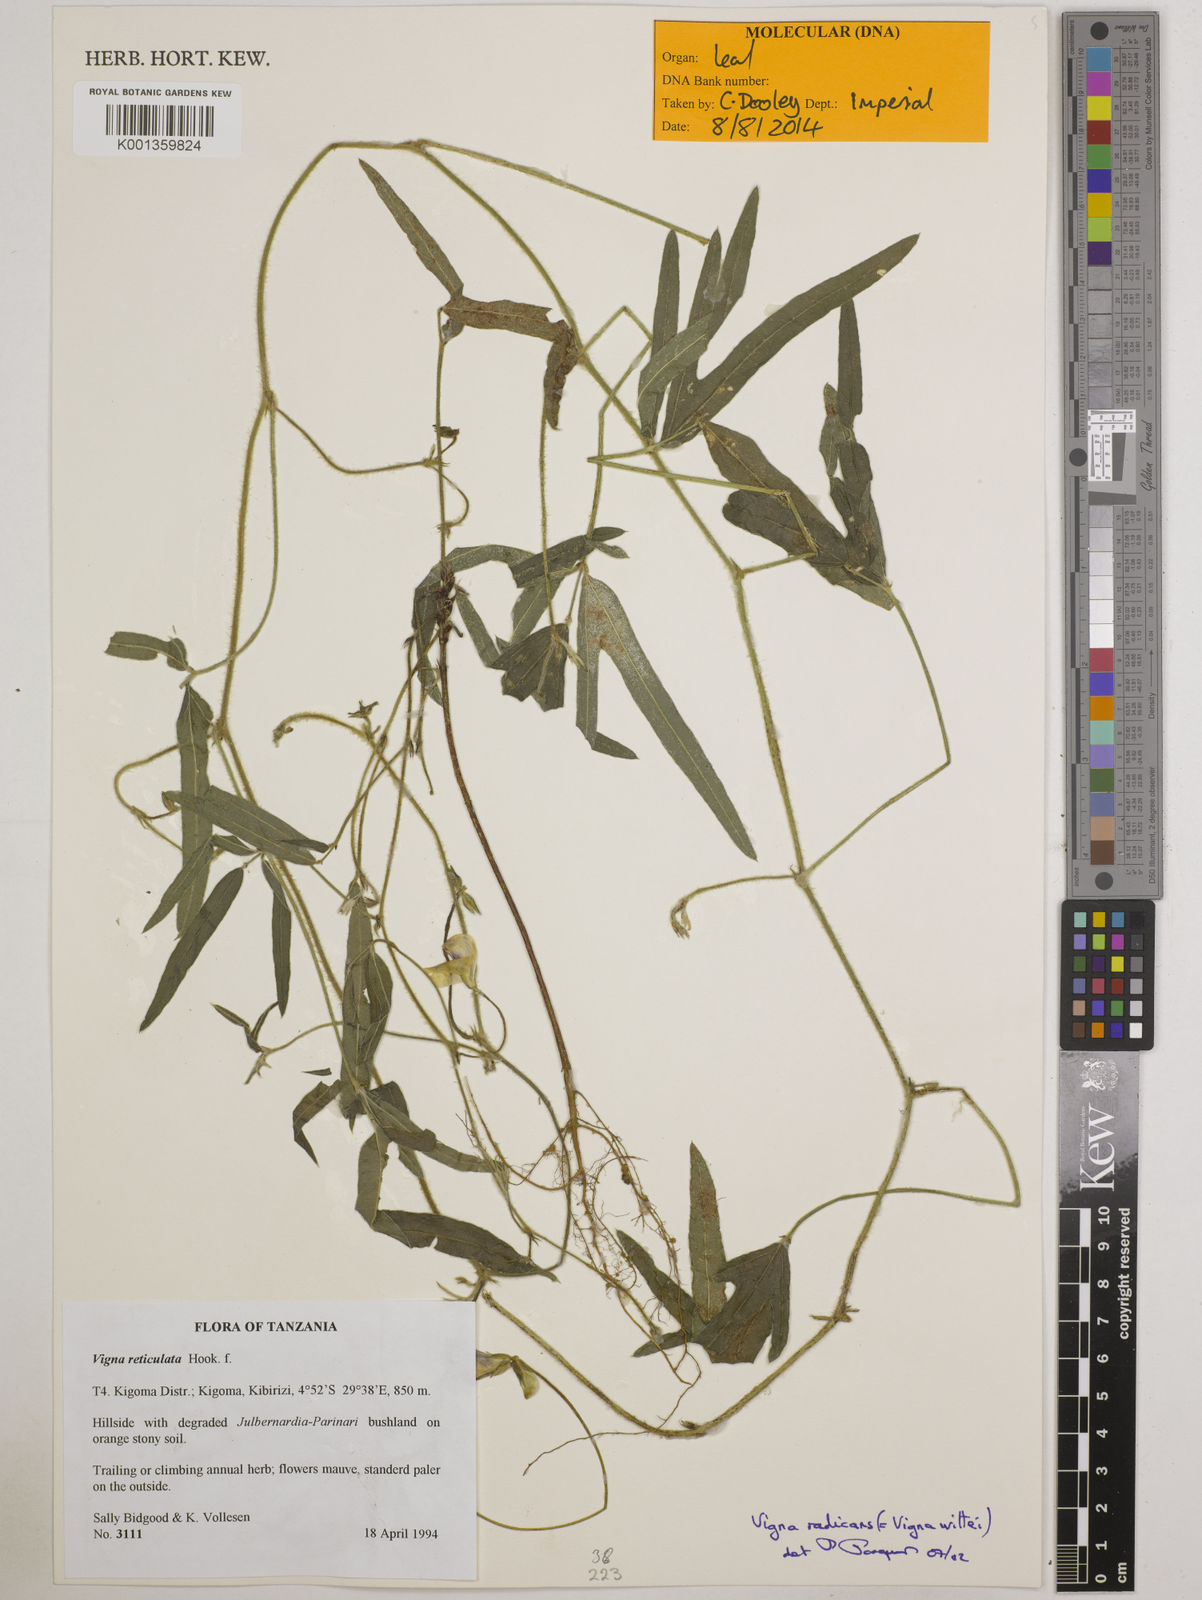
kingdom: Plantae
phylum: Tracheophyta
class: Magnoliopsida
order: Fabales
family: Fabaceae
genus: Vigna
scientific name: Vigna reticulata
